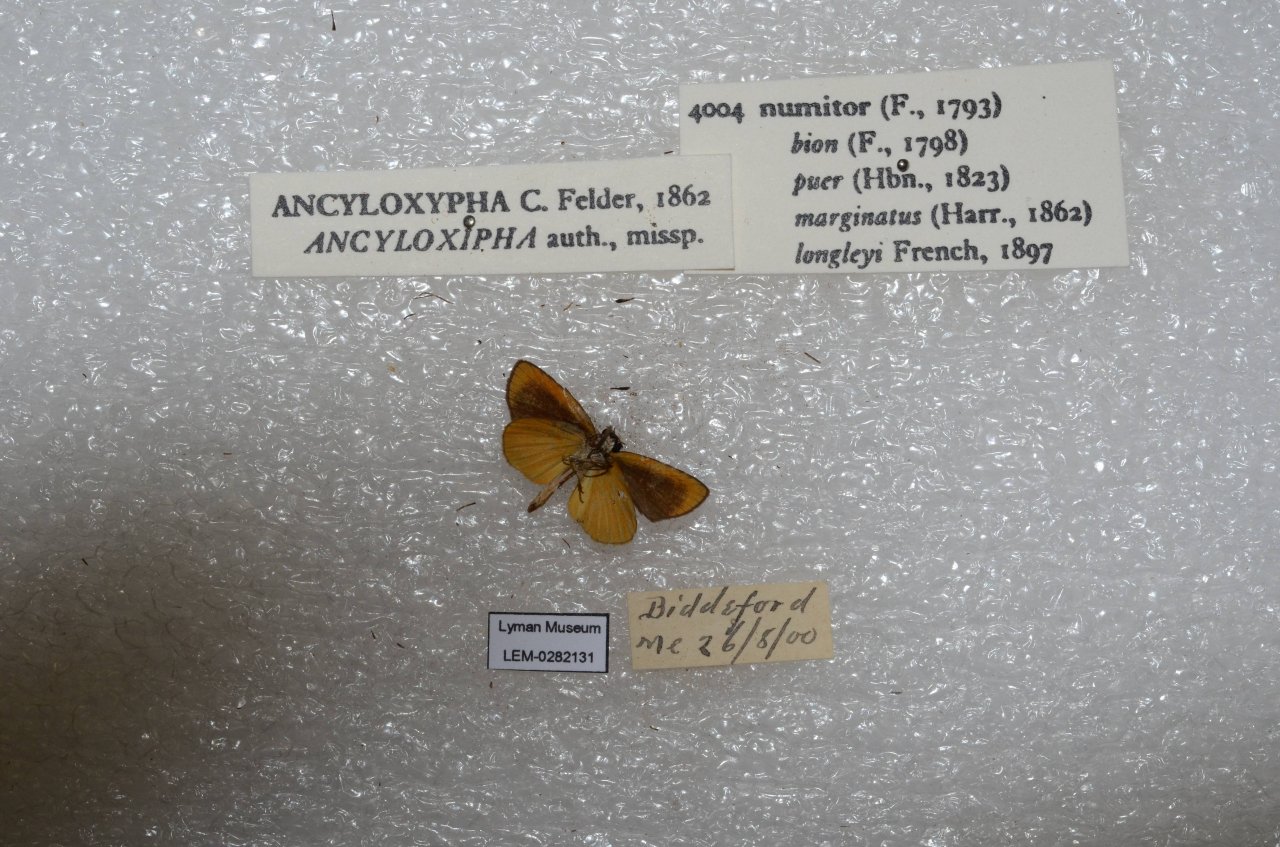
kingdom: Animalia
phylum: Arthropoda
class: Insecta
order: Lepidoptera
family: Hesperiidae
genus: Ancyloxypha
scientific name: Ancyloxypha numitor
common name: Least Skipper
